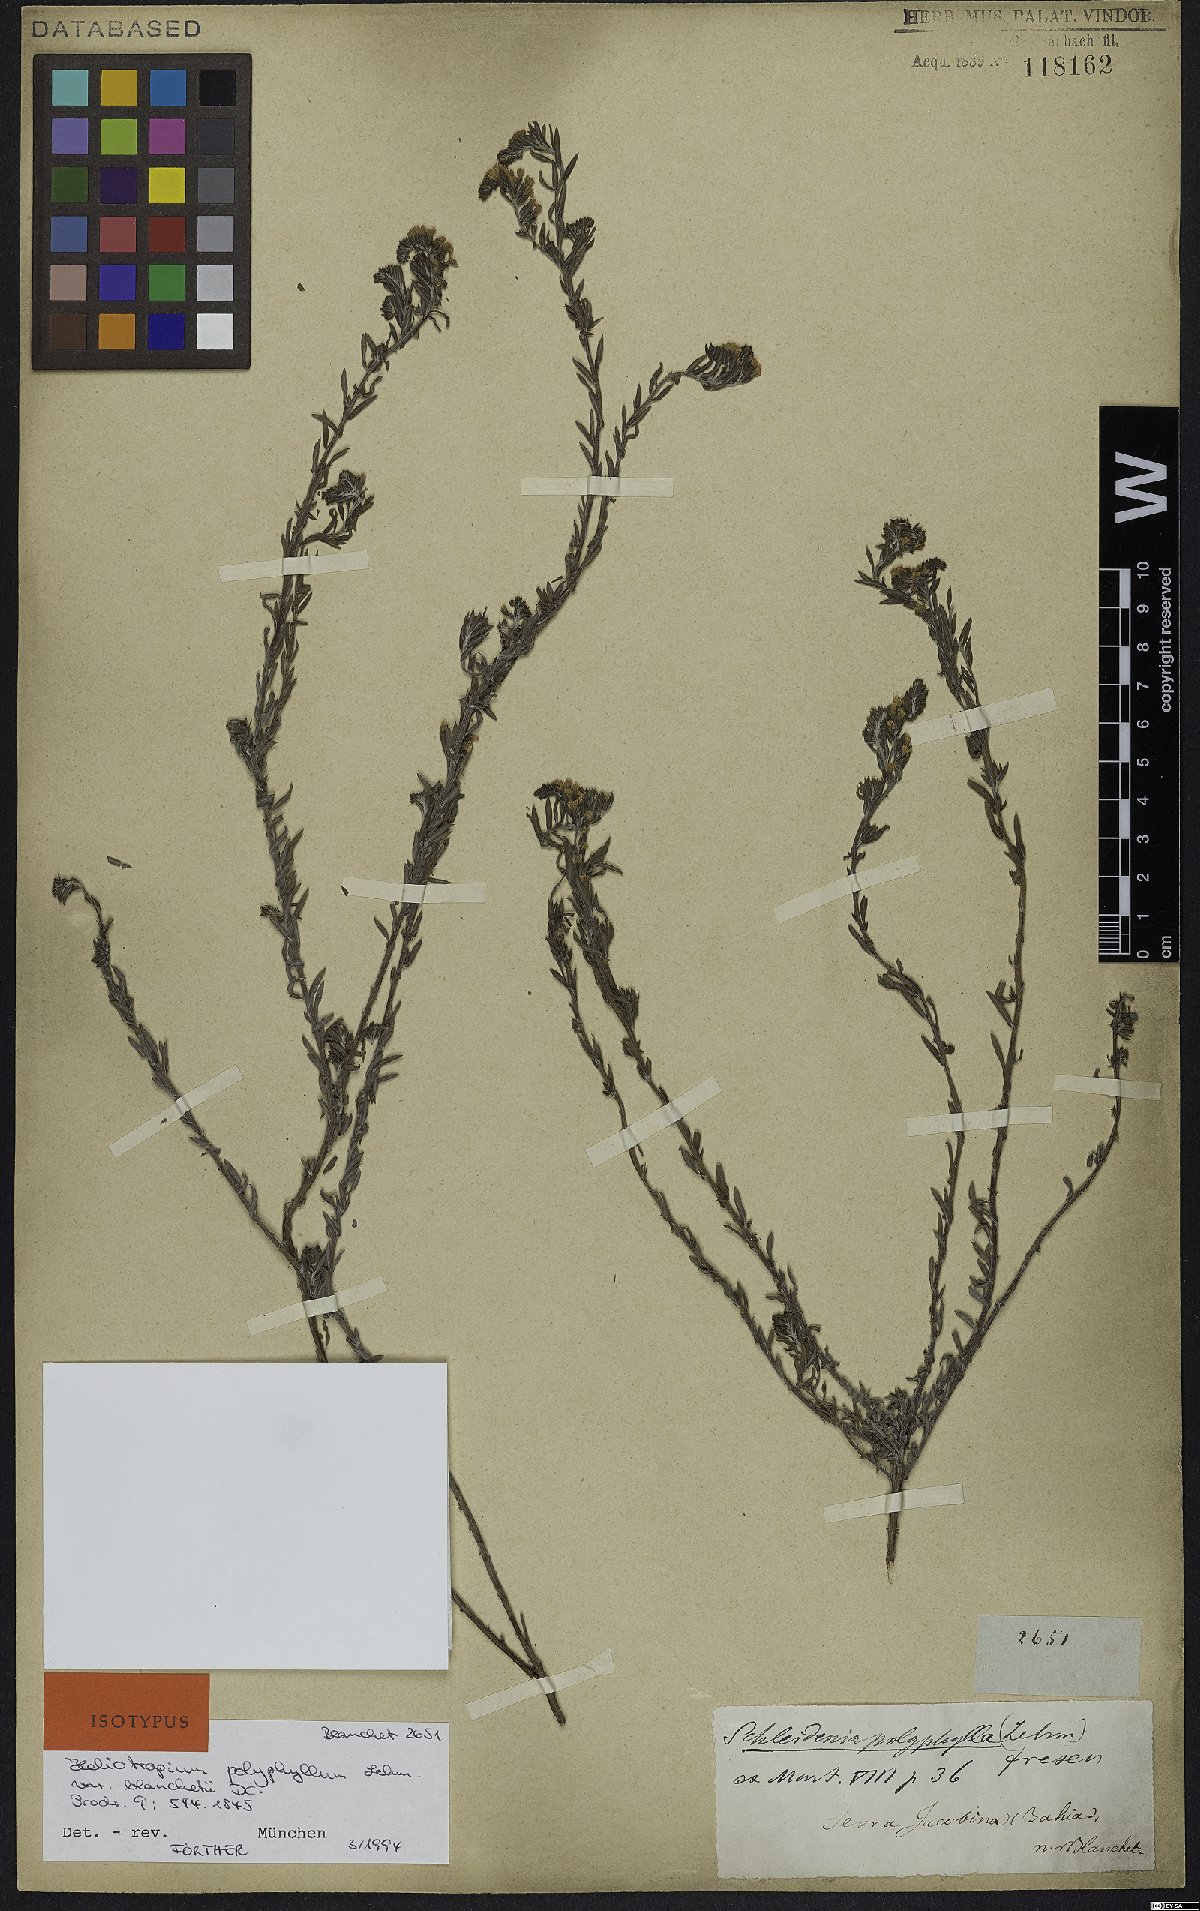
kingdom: Plantae
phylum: Tracheophyta
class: Magnoliopsida
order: Boraginales
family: Heliotropiaceae
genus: Euploca
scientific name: Euploca polyphylla
